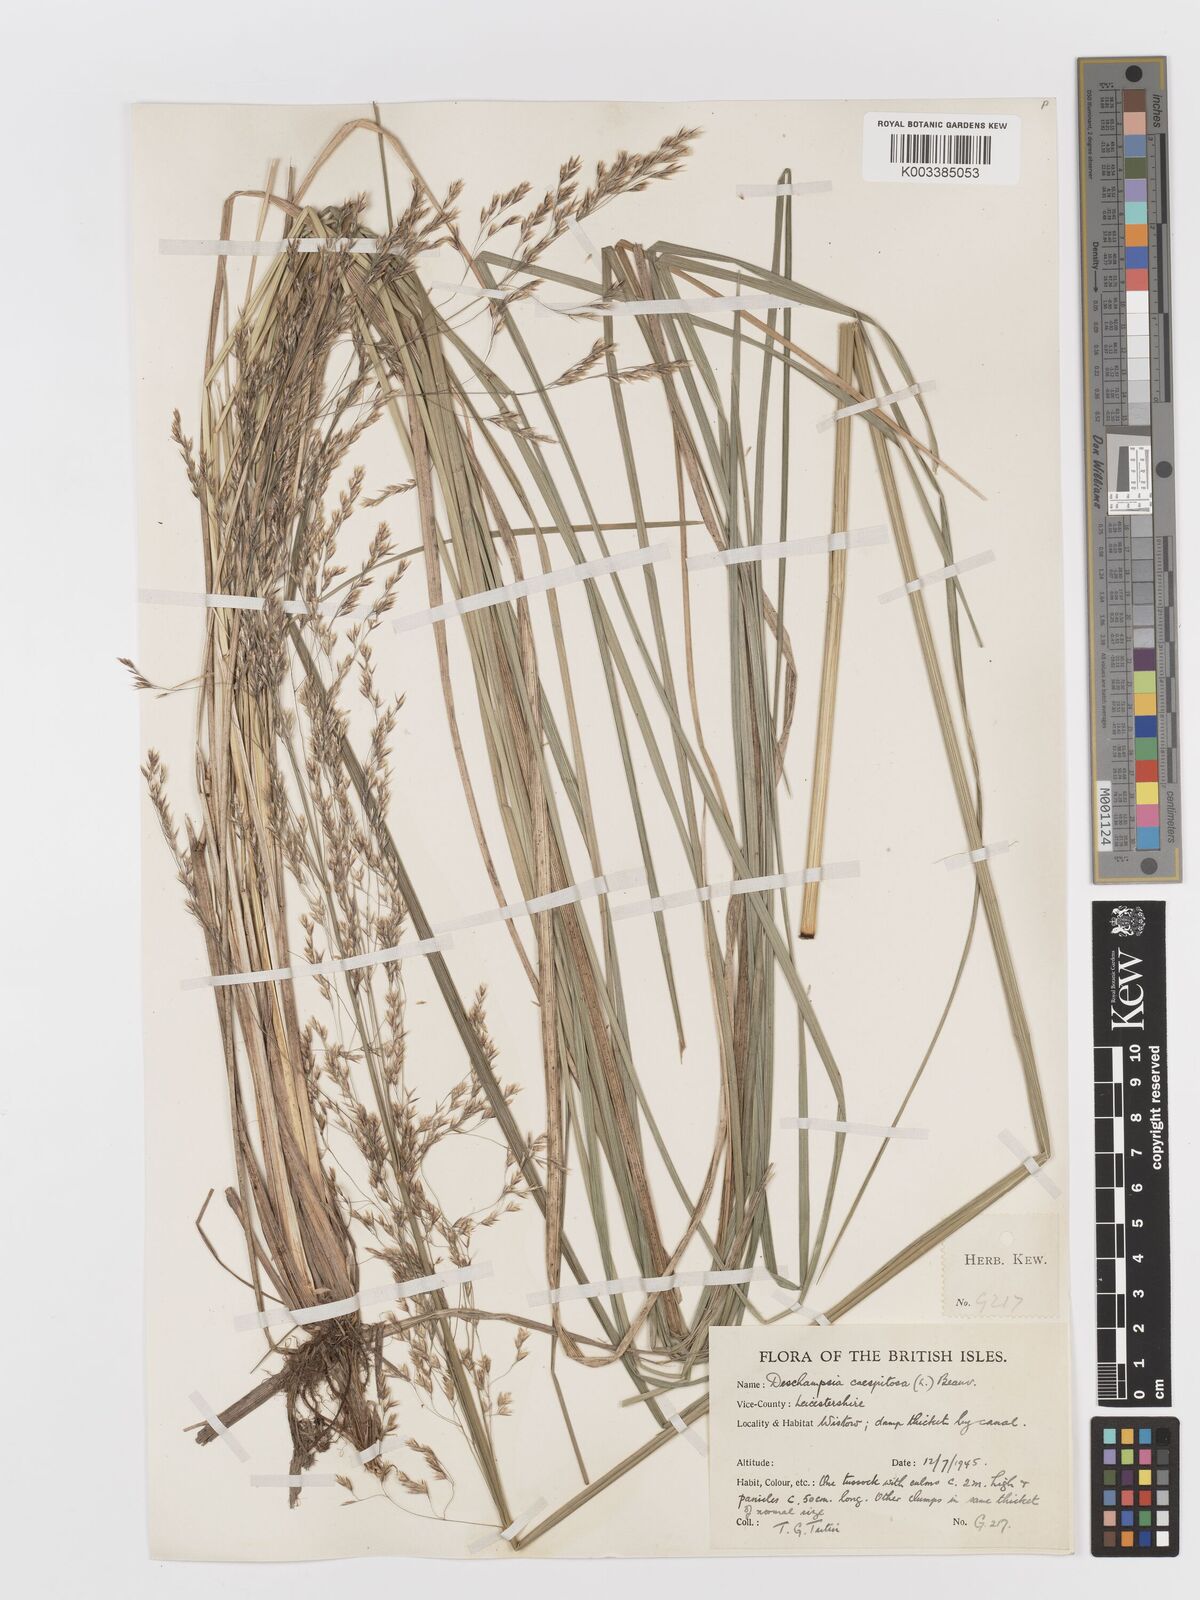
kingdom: Plantae
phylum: Tracheophyta
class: Liliopsida
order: Poales
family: Poaceae
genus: Deschampsia
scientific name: Deschampsia cespitosa
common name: Tufted hair-grass
